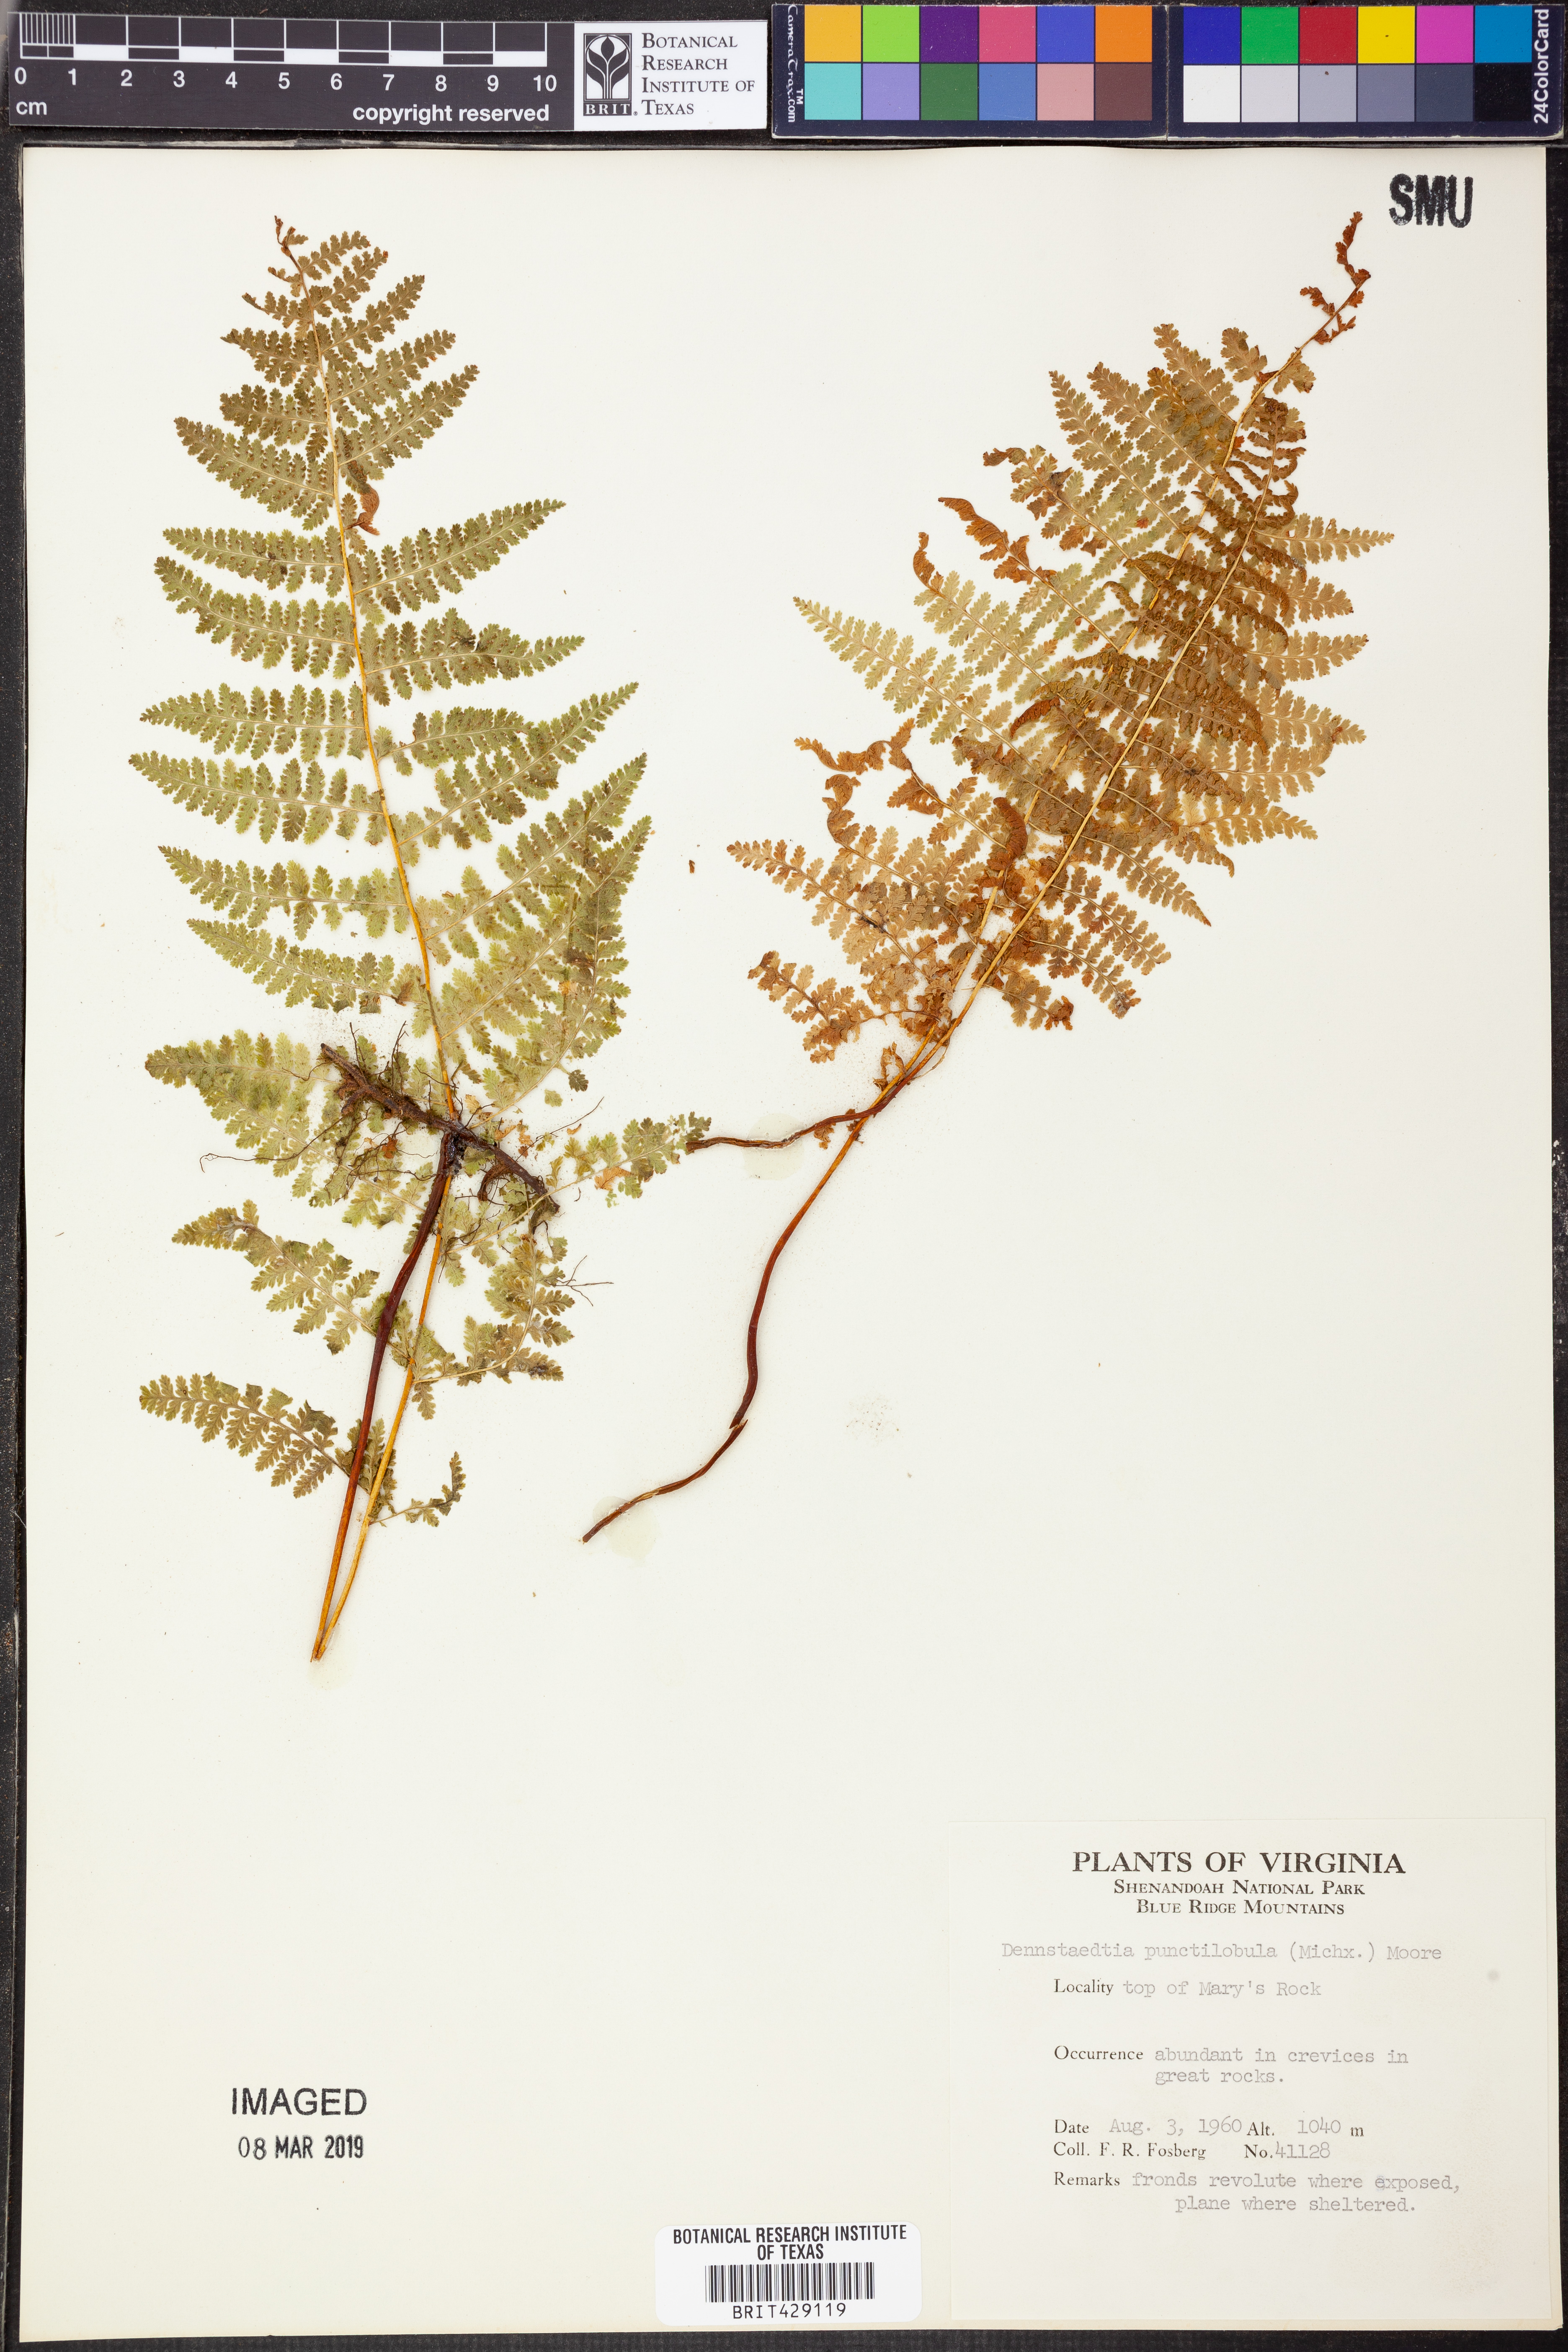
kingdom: Plantae
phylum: Tracheophyta
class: Polypodiopsida
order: Polypodiales
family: Dennstaedtiaceae
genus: Sitobolium
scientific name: Sitobolium punctilobum
